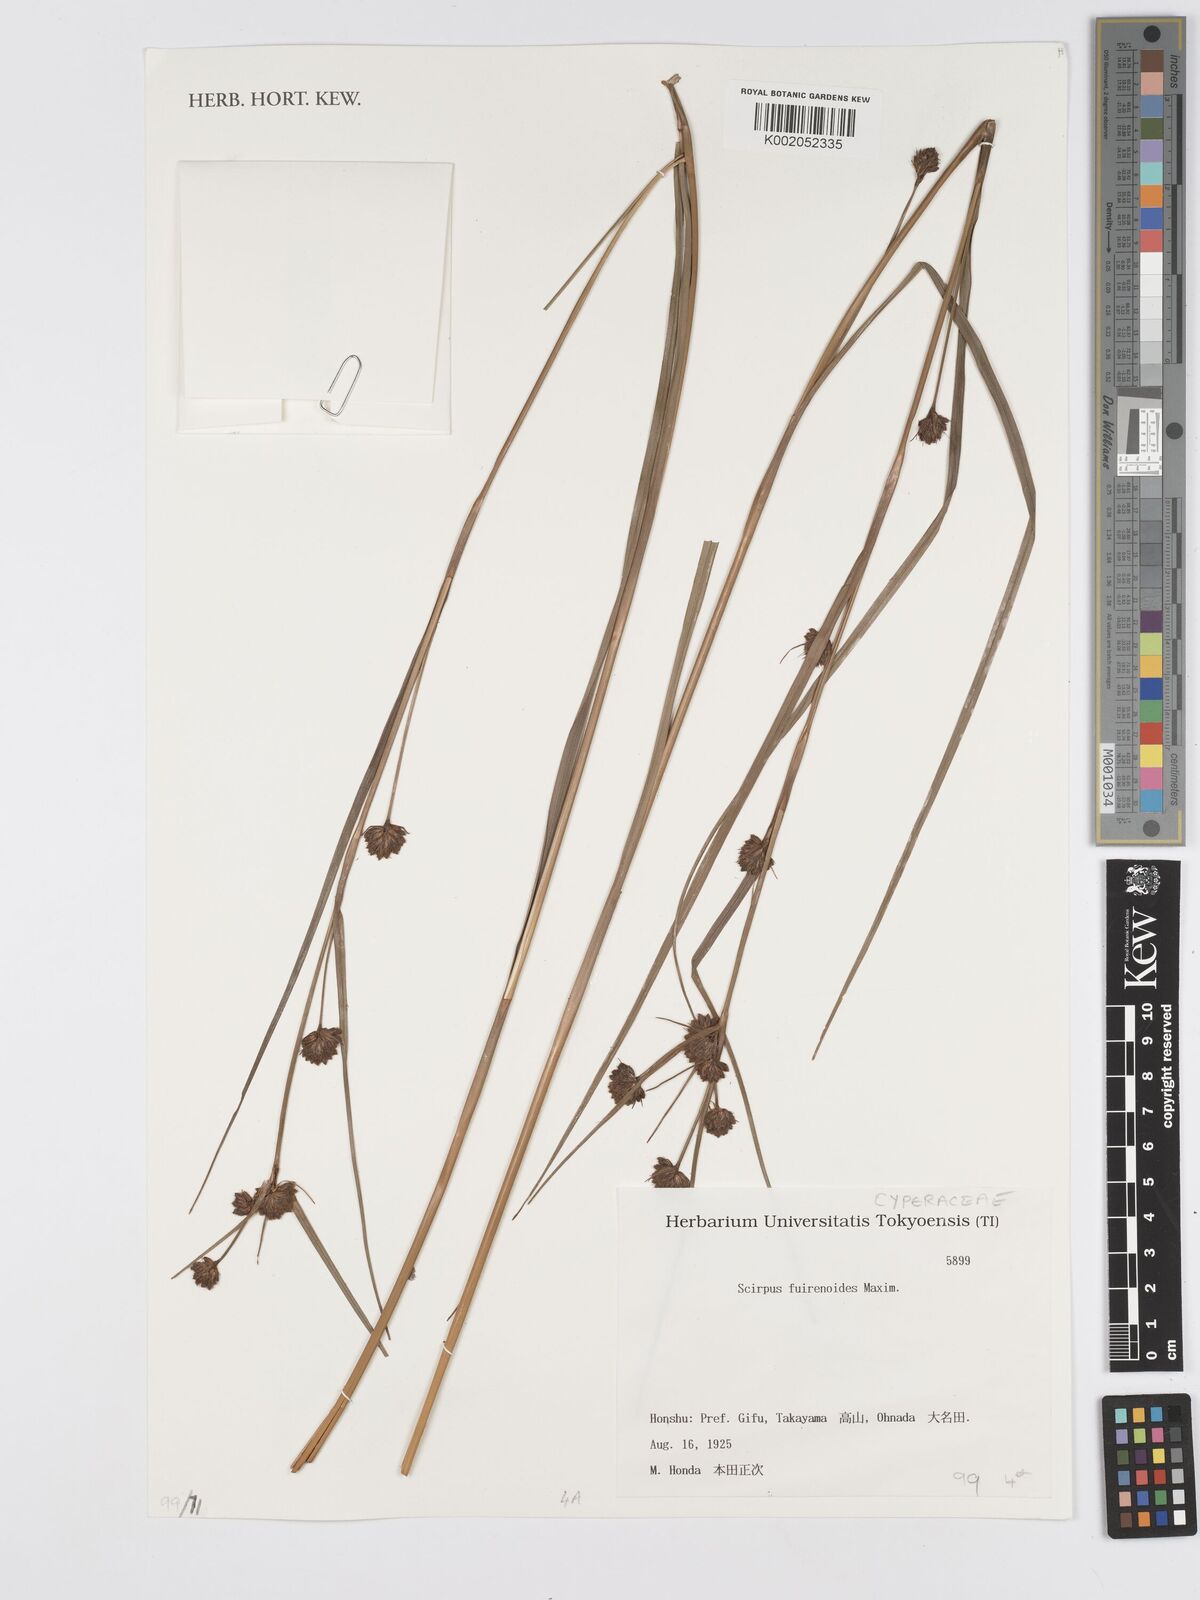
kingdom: Plantae
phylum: Tracheophyta
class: Liliopsida
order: Poales
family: Cyperaceae
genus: Scirpus
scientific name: Scirpus fuirenoides
